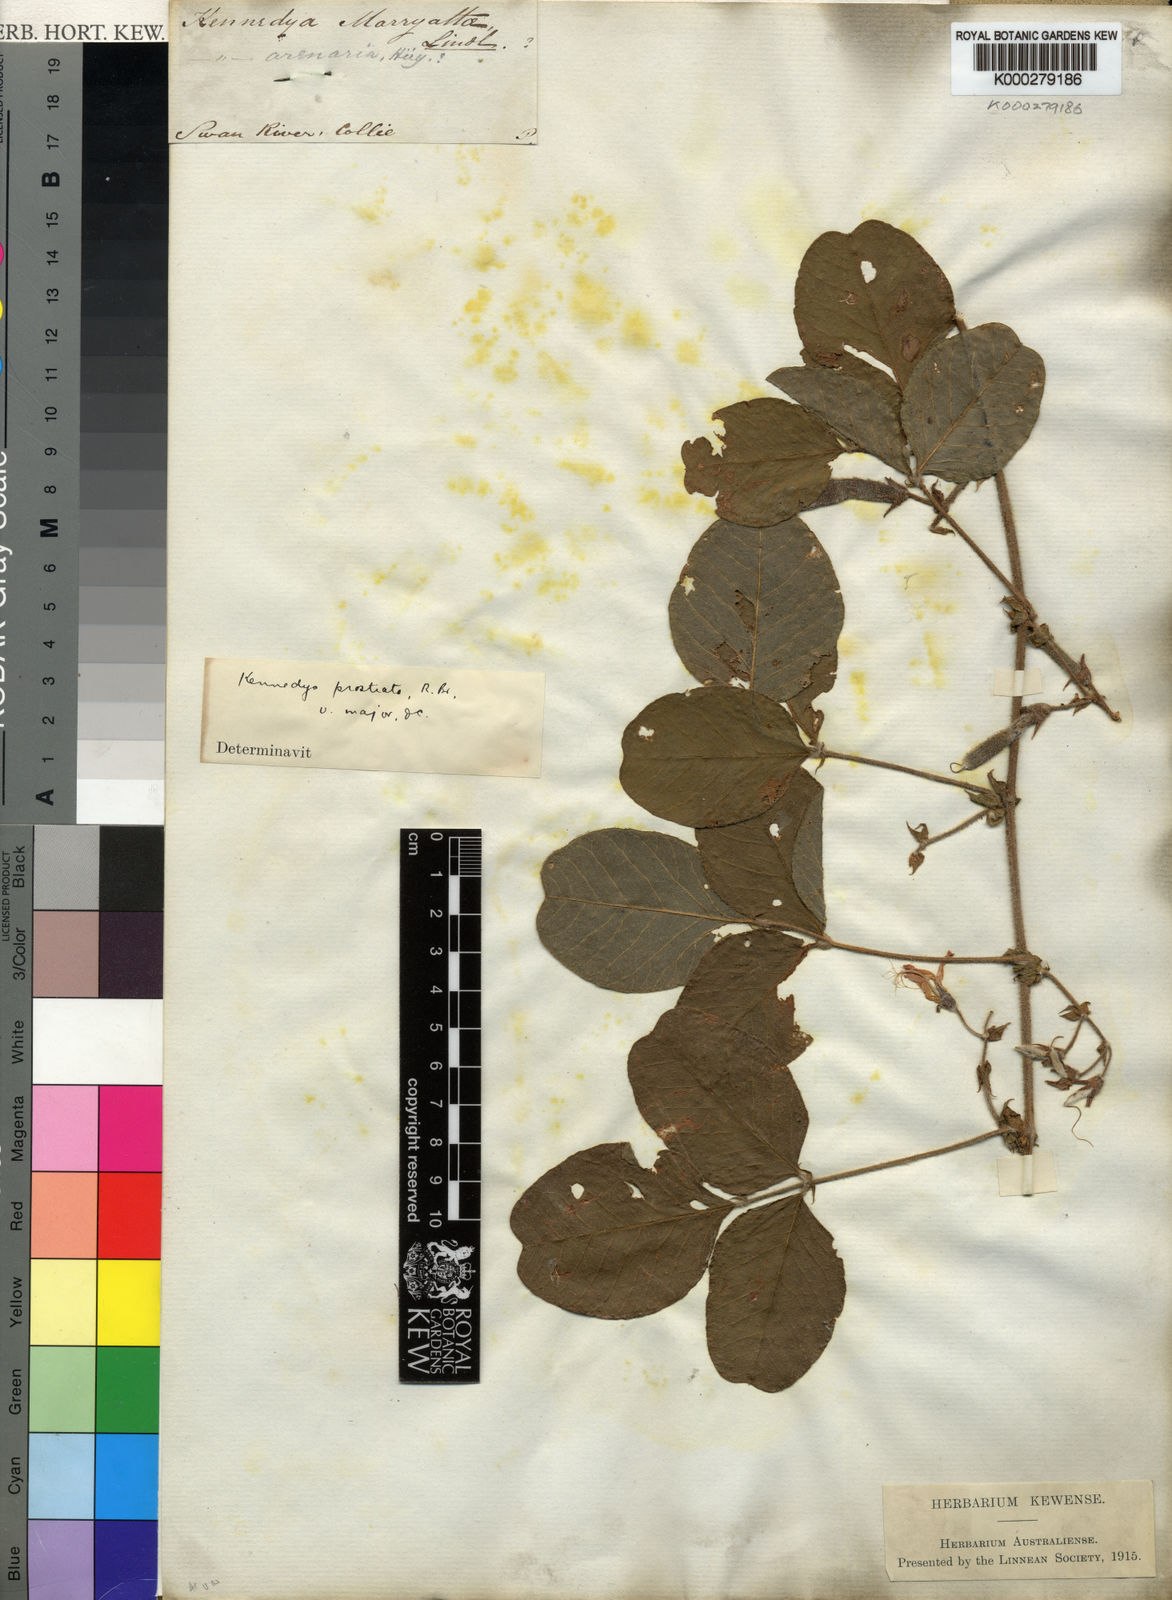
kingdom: Plantae
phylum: Tracheophyta
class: Magnoliopsida
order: Fabales
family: Fabaceae
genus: Kennedia
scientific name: Kennedia prostrata
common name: Running-postman
